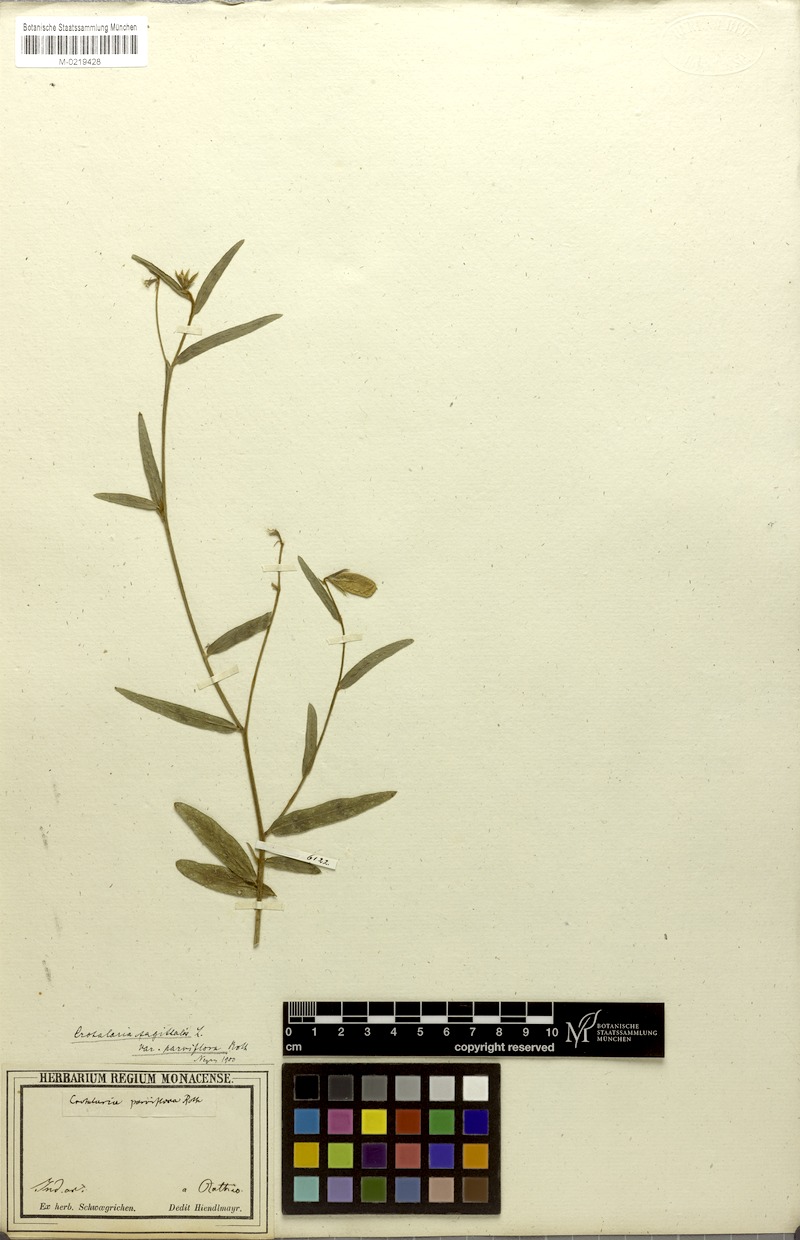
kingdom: Plantae
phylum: Tracheophyta
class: Magnoliopsida
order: Fabales
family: Fabaceae
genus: Crotalaria
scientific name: Crotalaria sagittalis
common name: Arrowhead rattlebox
